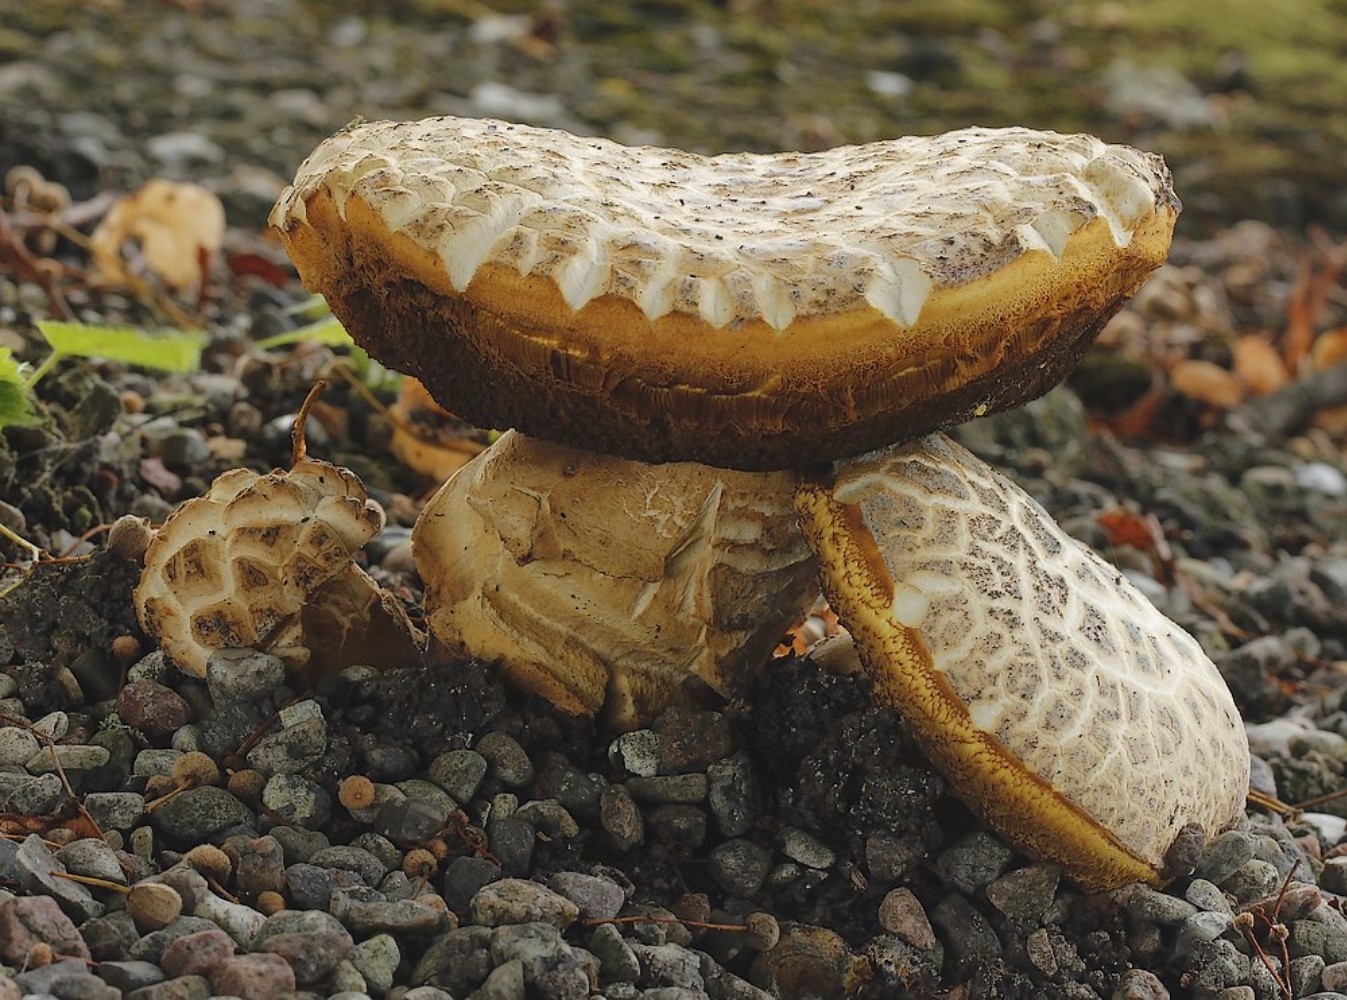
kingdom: Fungi
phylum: Basidiomycota
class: Agaricomycetes
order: Boletales
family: Boletaceae
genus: Caloboletus
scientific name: Caloboletus radicans
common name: rod-rørhat
